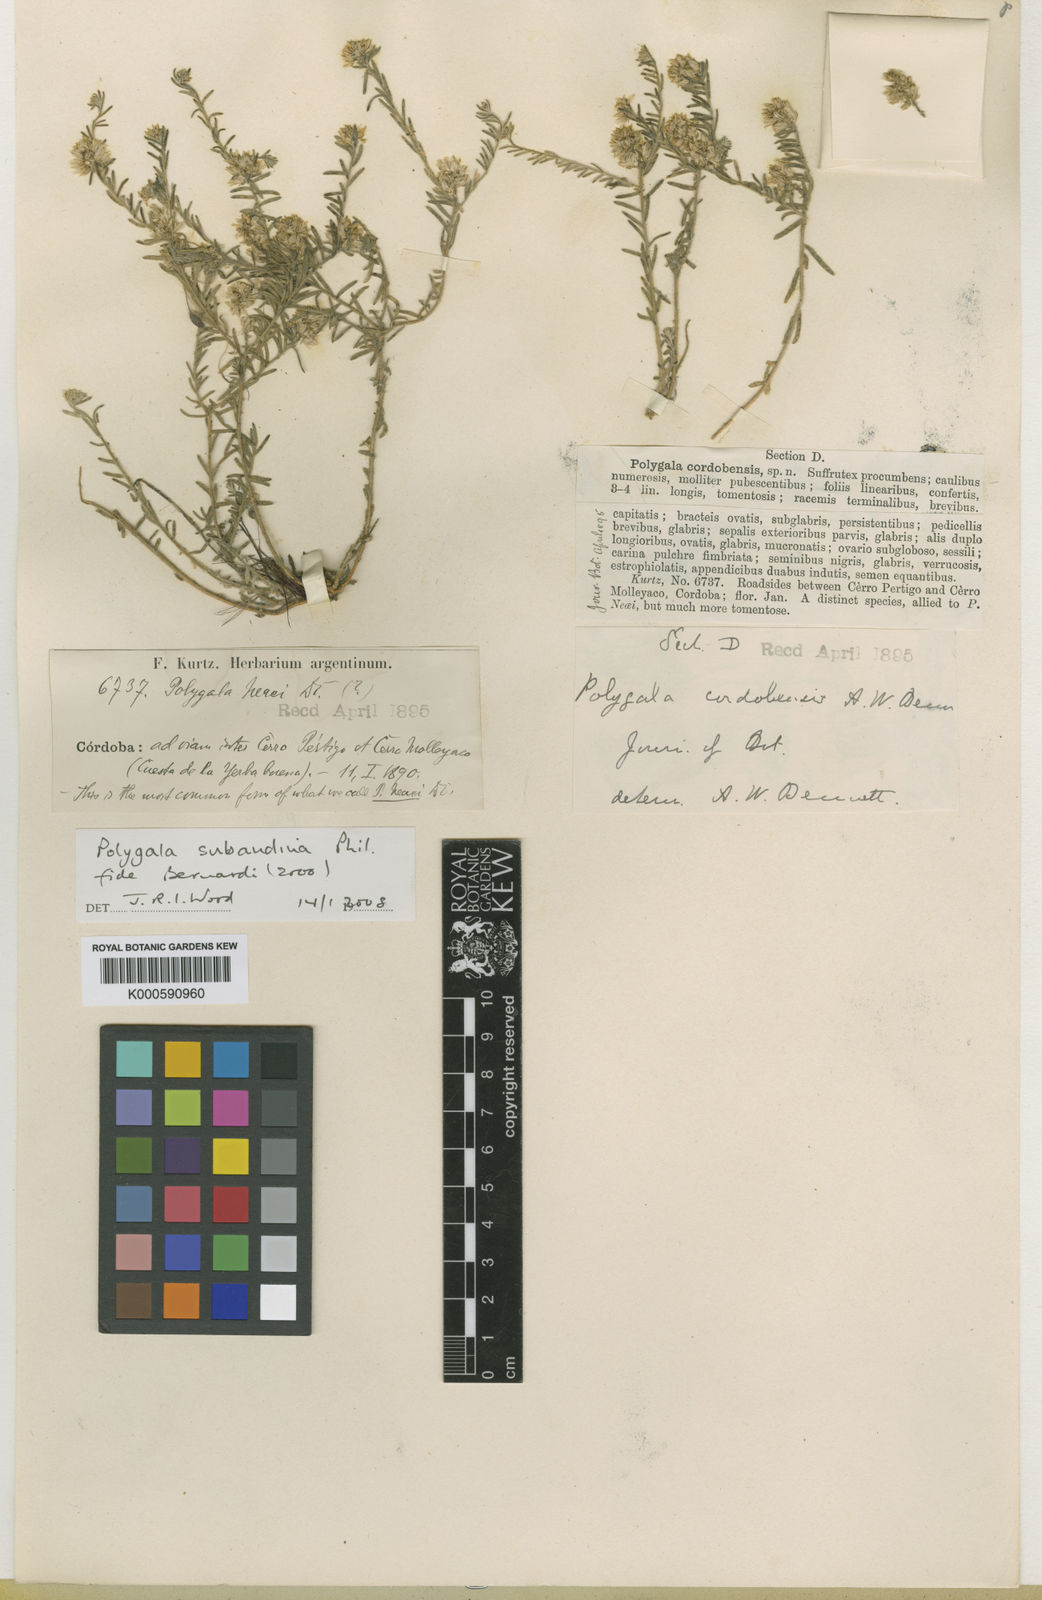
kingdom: Plantae
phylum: Tracheophyta
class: Magnoliopsida
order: Fabales
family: Polygalaceae
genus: Polygala
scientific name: Polygala subandina
